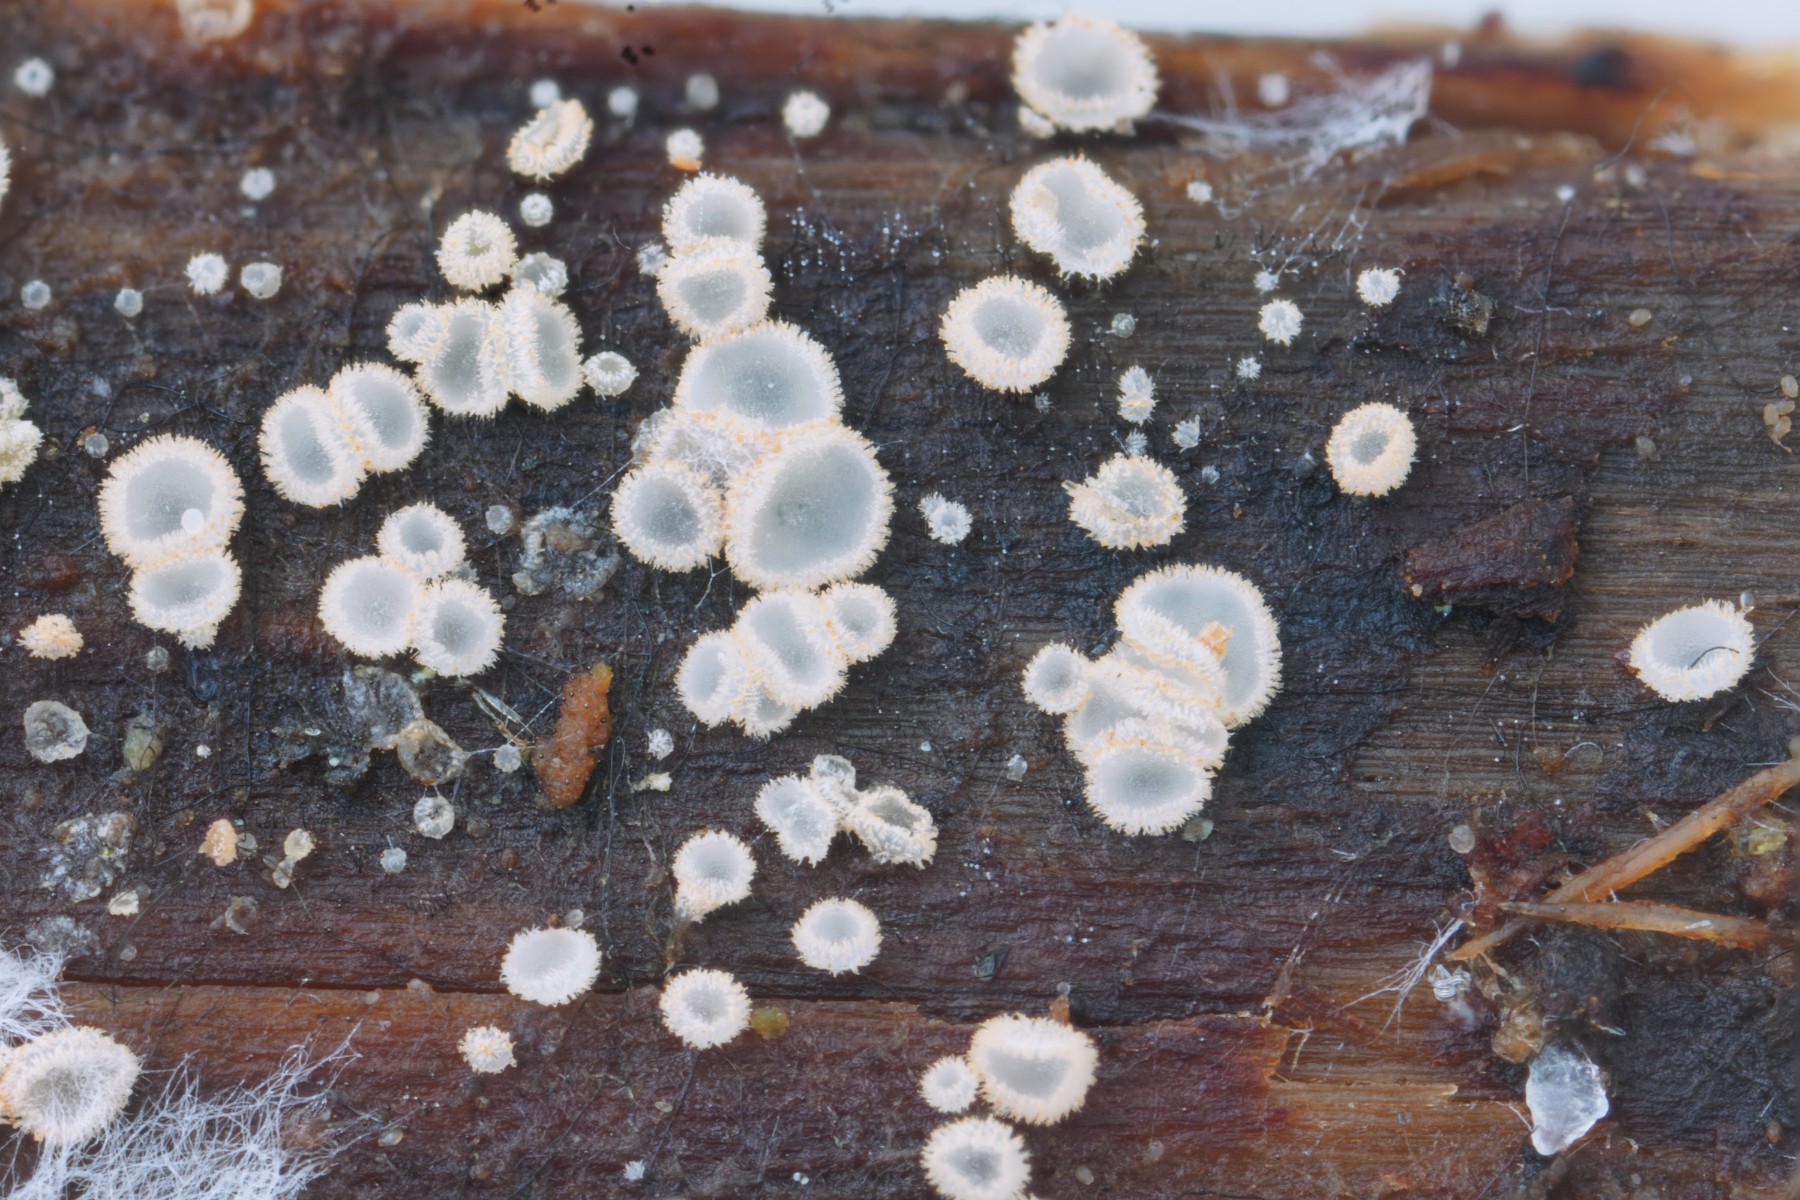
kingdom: Fungi
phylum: Ascomycota
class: Leotiomycetes
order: Helotiales
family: Hyaloscyphaceae
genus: Eupezizella
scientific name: Eupezizella britannica
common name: lærke-klarskive
